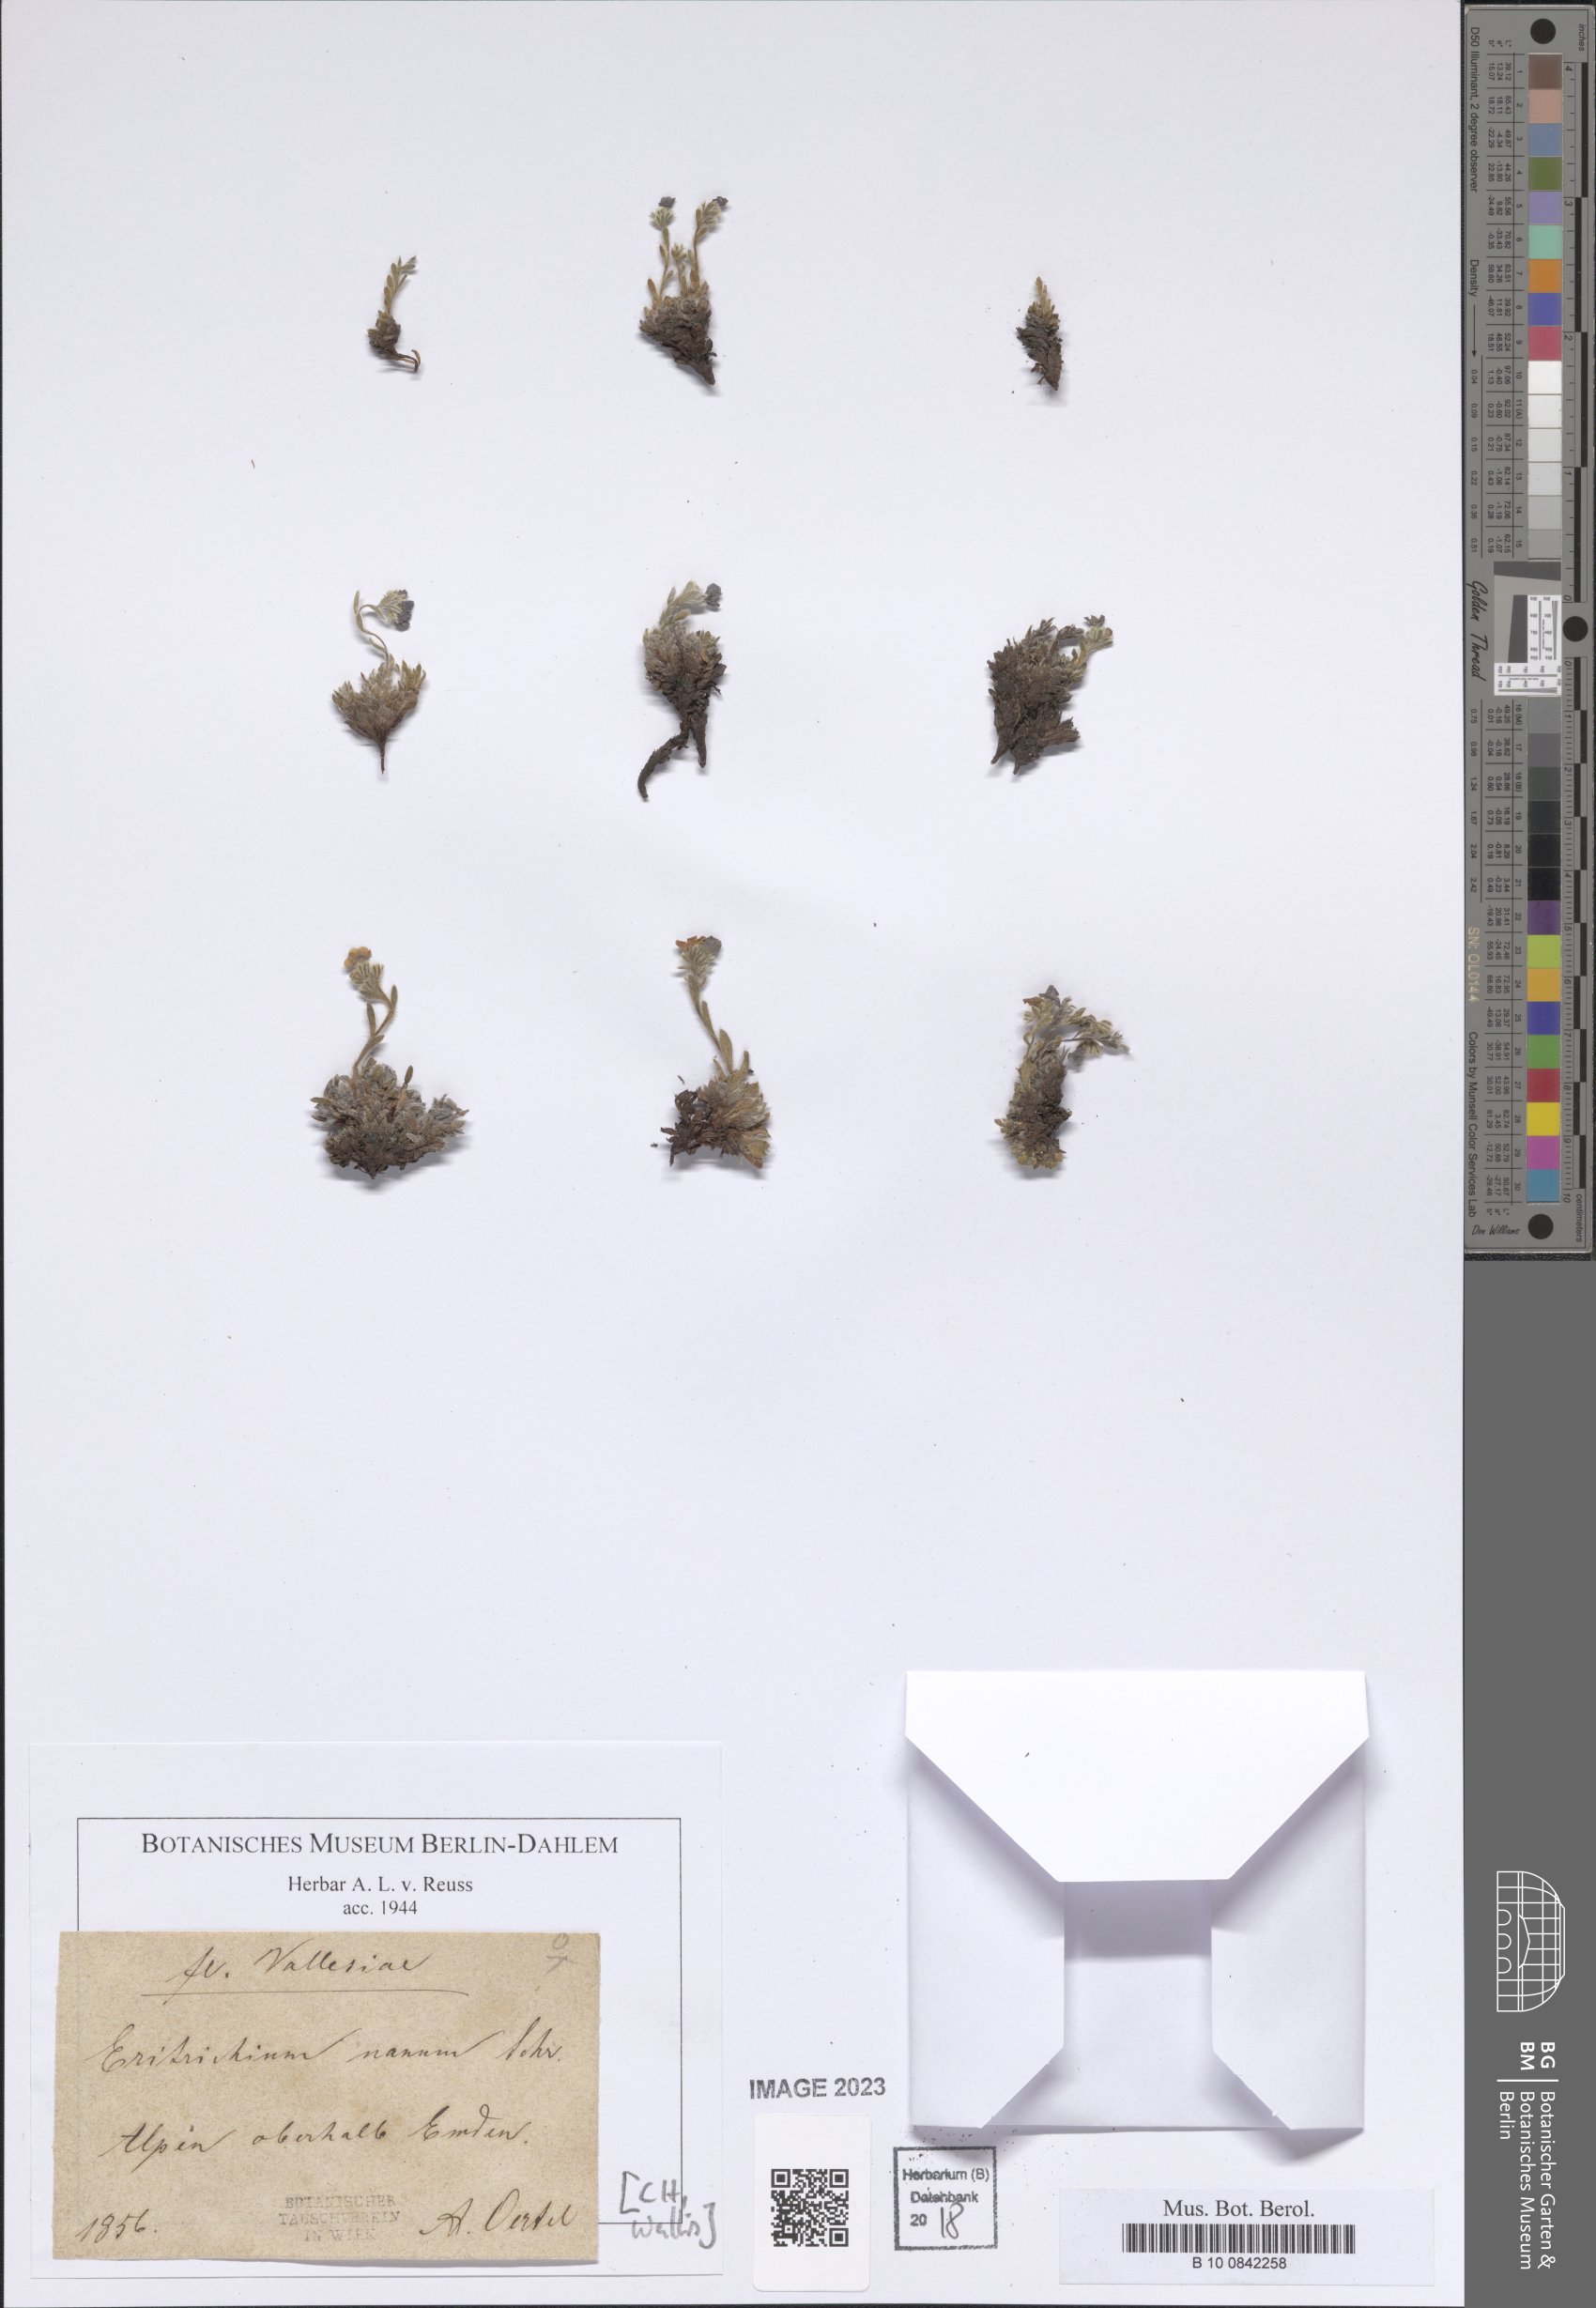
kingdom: Plantae
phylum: Tracheophyta
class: Magnoliopsida
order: Boraginales
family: Boraginaceae
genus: Eritrichium
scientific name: Eritrichium nanum
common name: King-of-the-alps
